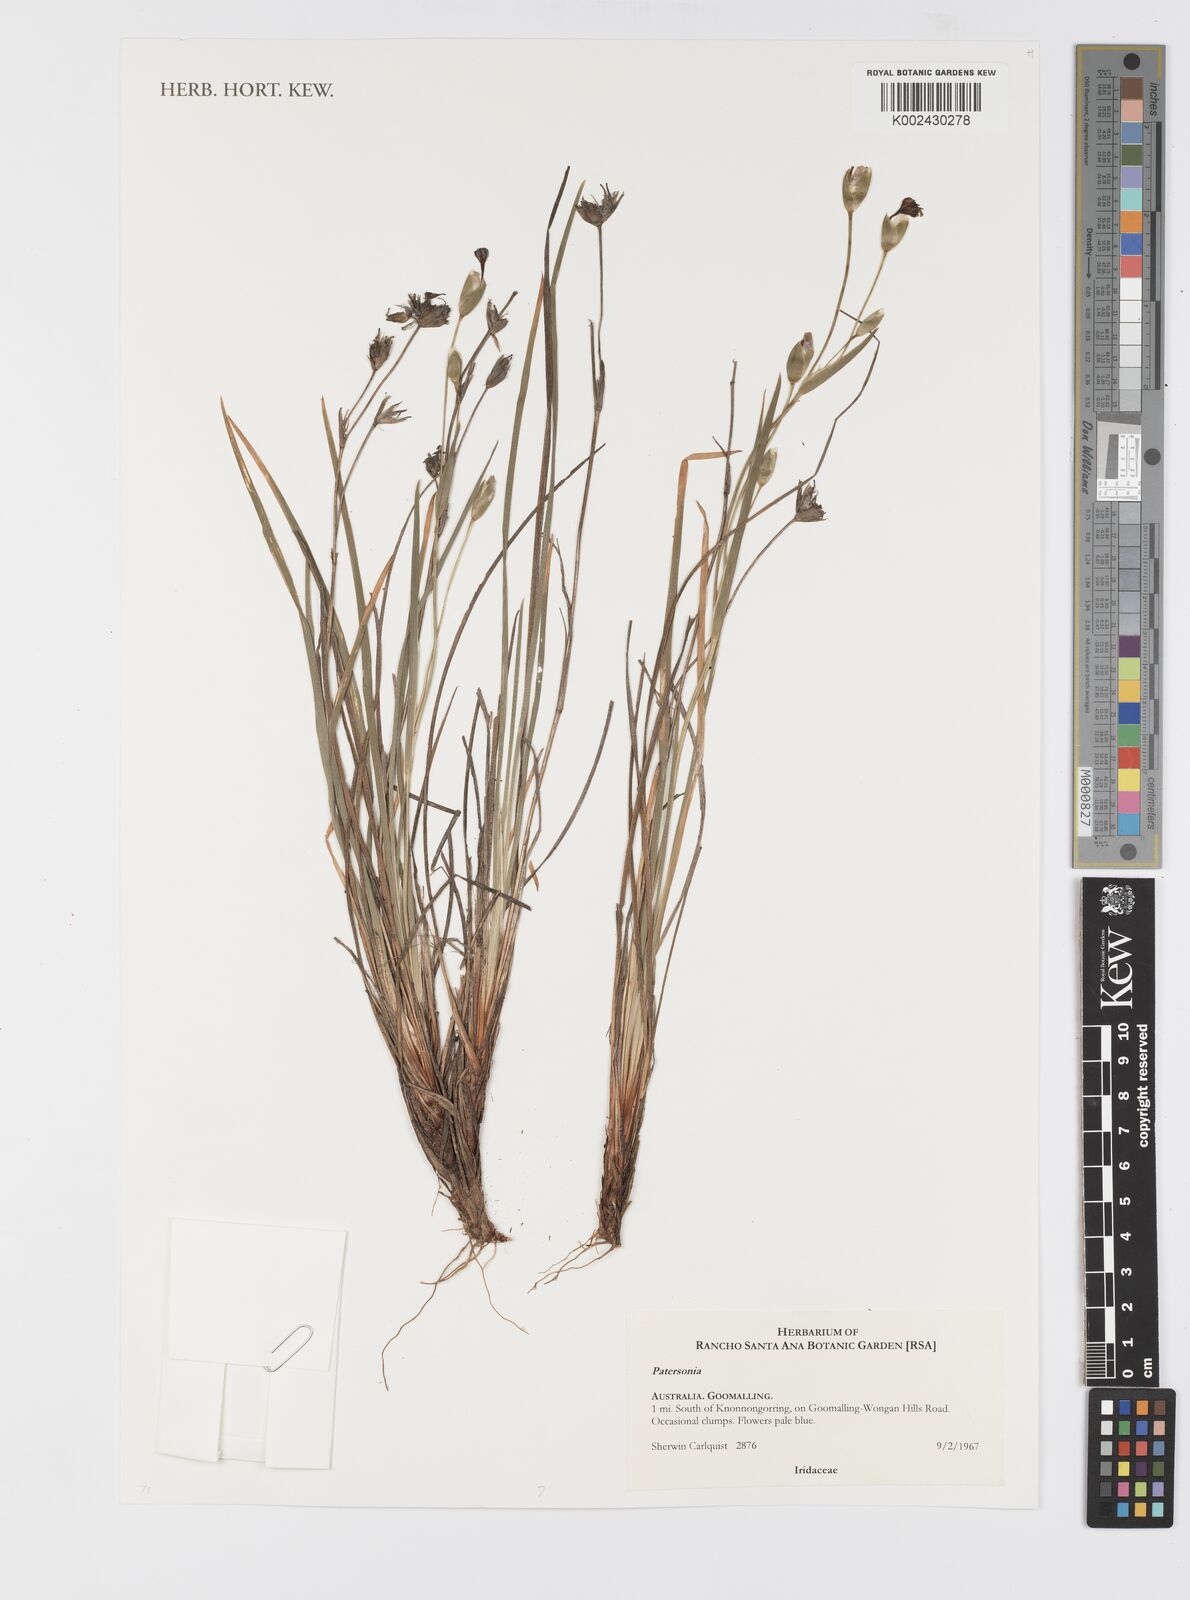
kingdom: Plantae
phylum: Tracheophyta
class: Liliopsida
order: Asparagales
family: Iridaceae
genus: Patersonia
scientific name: Patersonia
